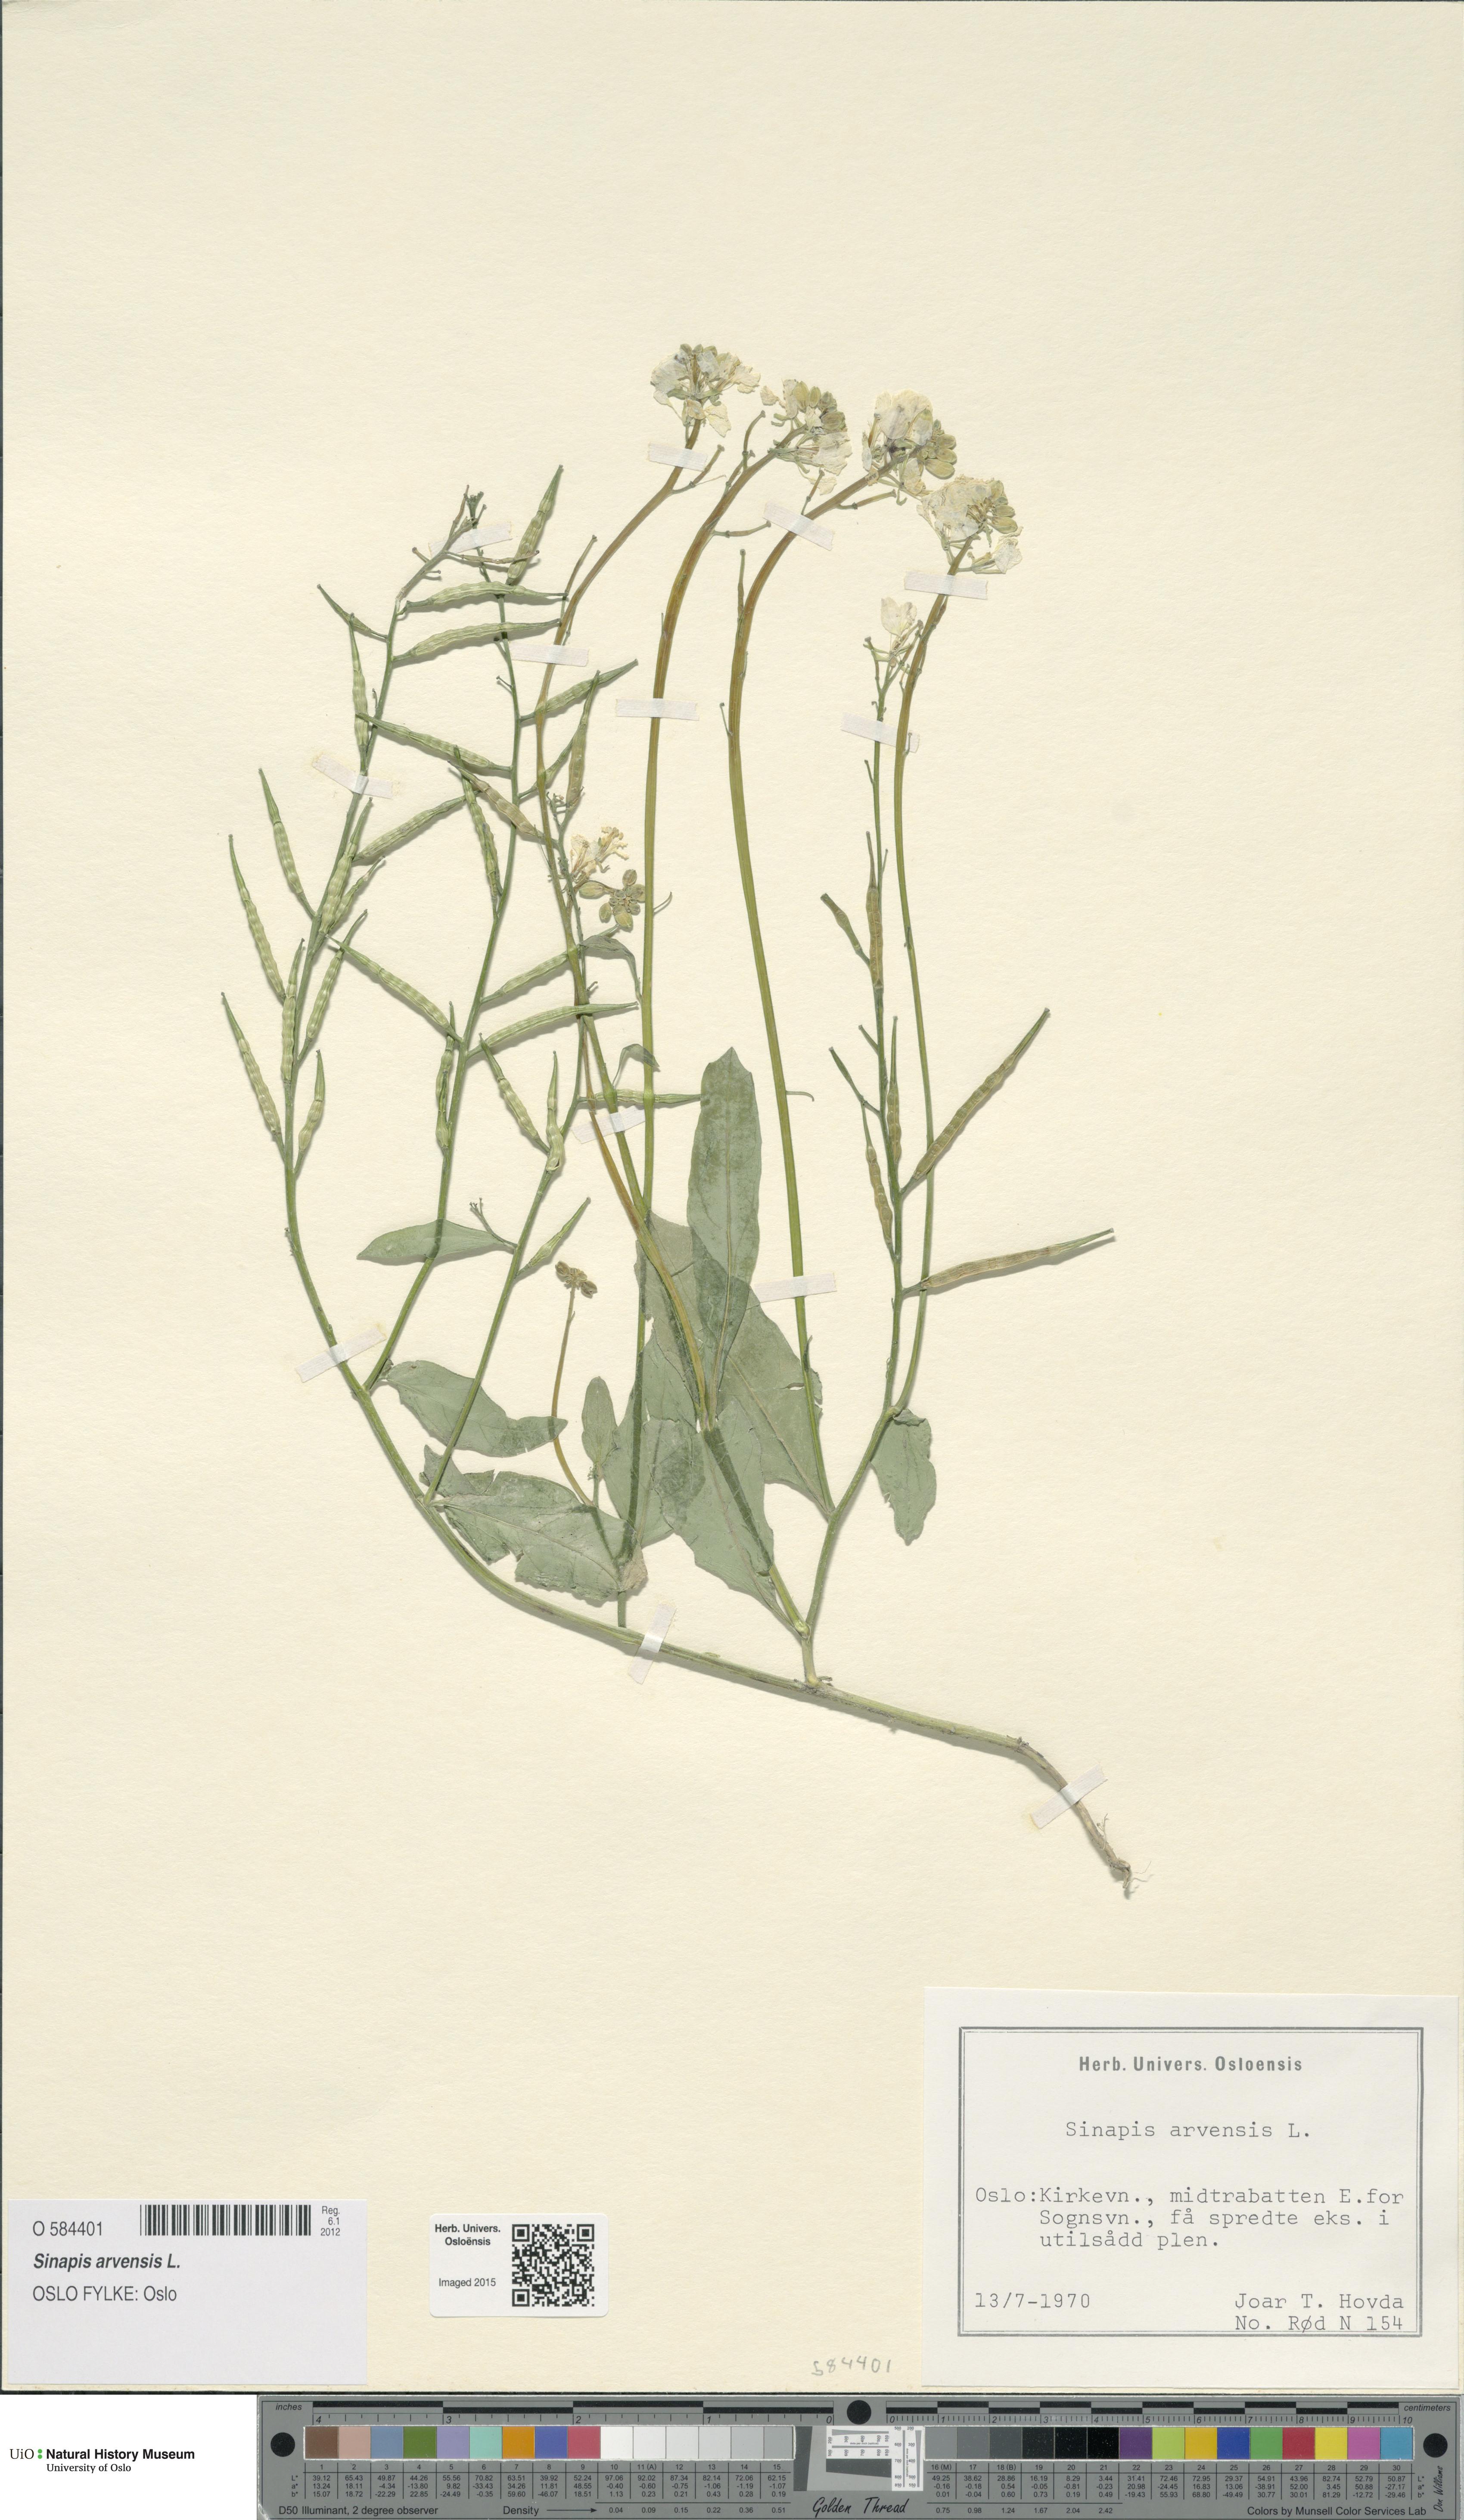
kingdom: Plantae
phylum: Tracheophyta
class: Magnoliopsida
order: Brassicales
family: Brassicaceae
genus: Sinapis
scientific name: Sinapis arvensis
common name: Charlock
